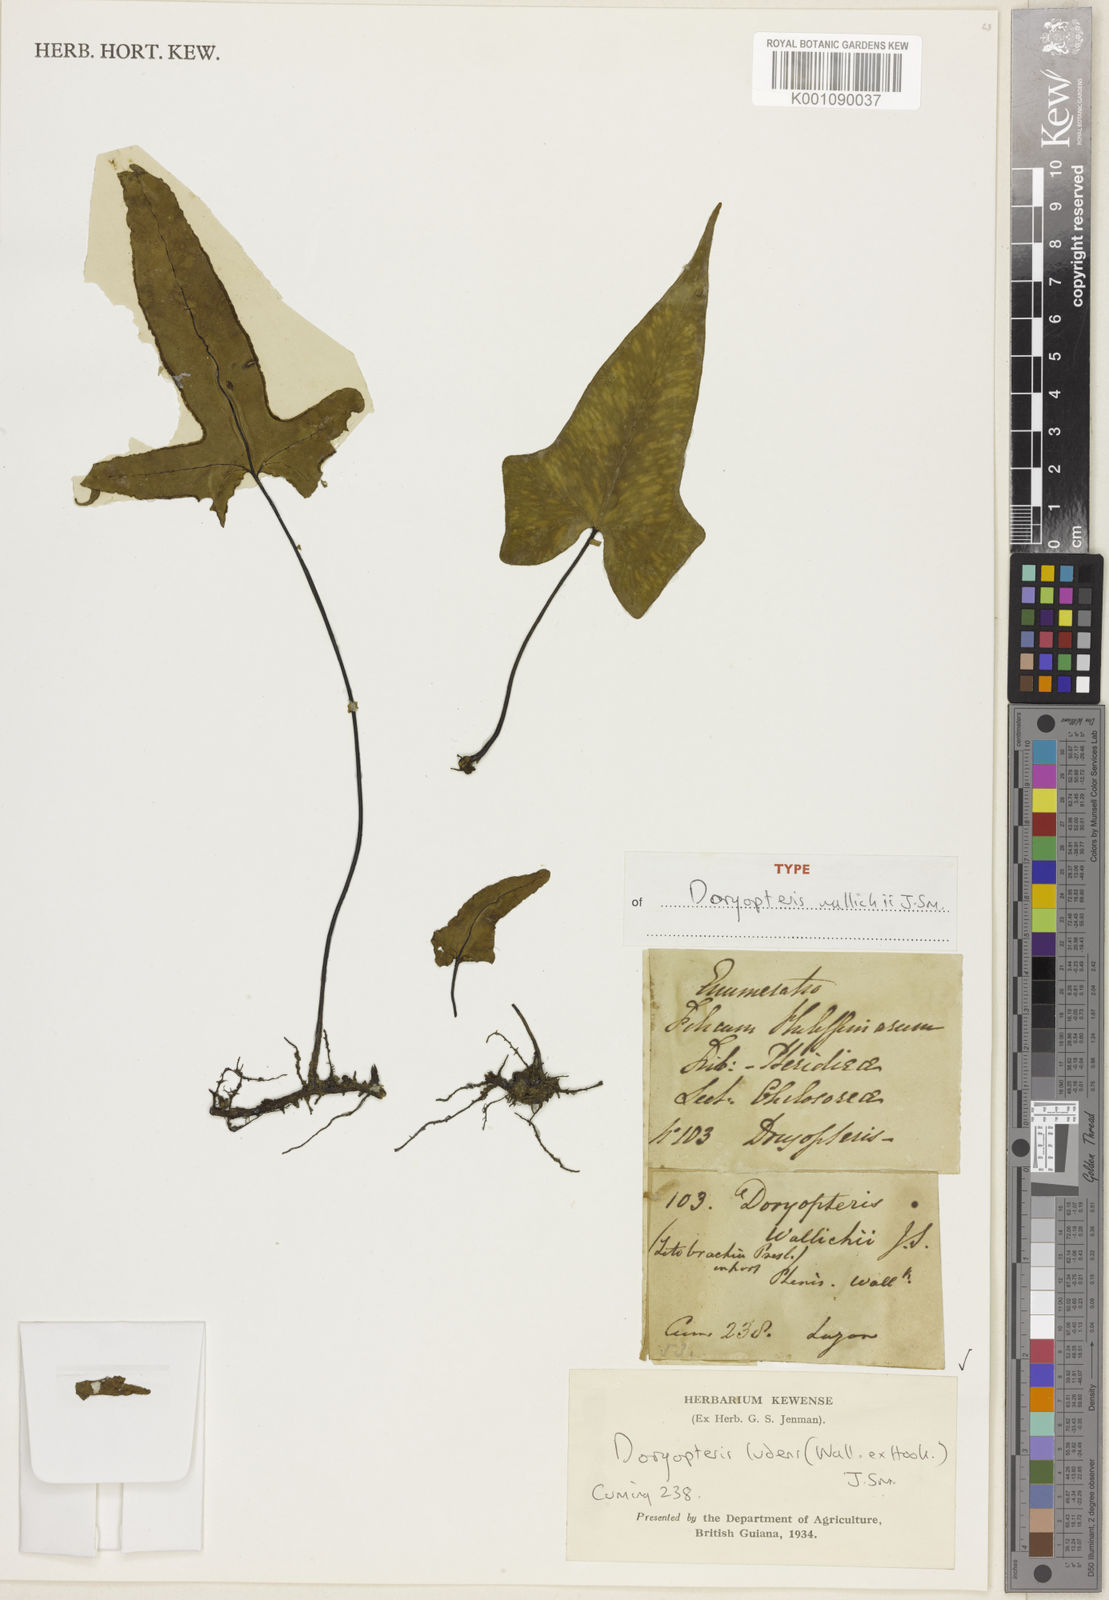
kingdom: Plantae
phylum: Tracheophyta
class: Polypodiopsida
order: Polypodiales
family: Pteridaceae
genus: Calciphilopteris
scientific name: Calciphilopteris ludens
